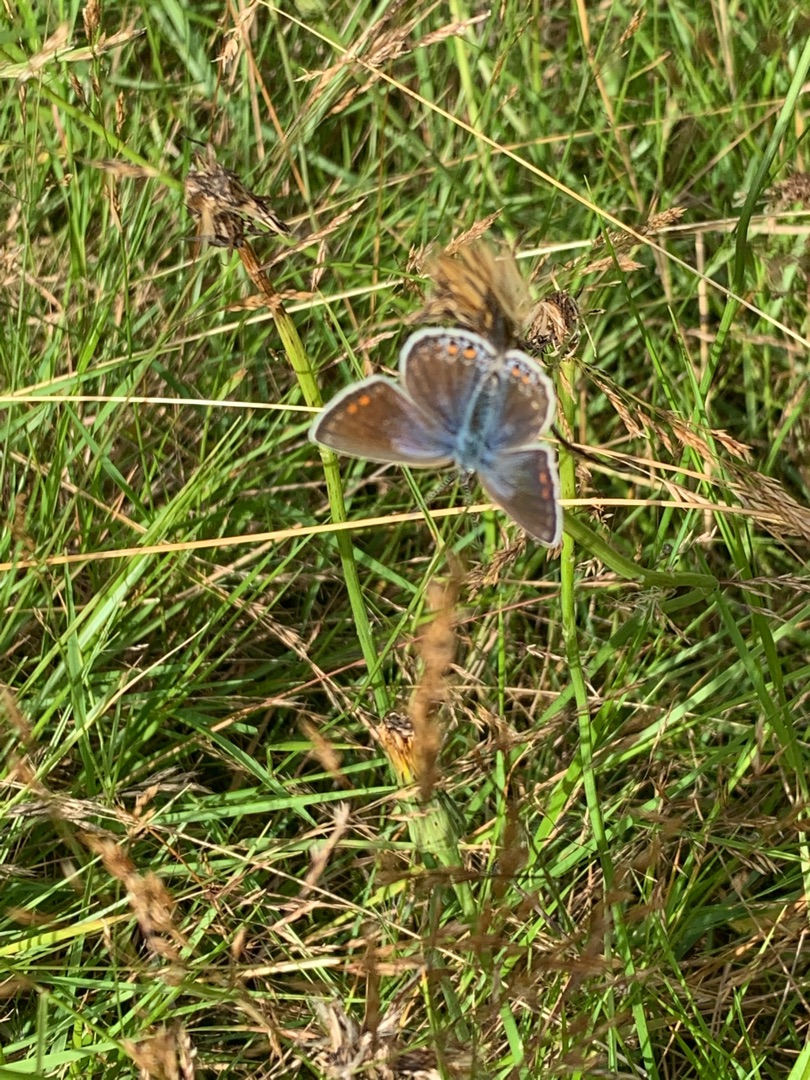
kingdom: Animalia
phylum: Arthropoda
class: Insecta
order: Lepidoptera
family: Lycaenidae
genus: Polyommatus
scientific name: Polyommatus icarus
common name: Almindelig blåfugl
